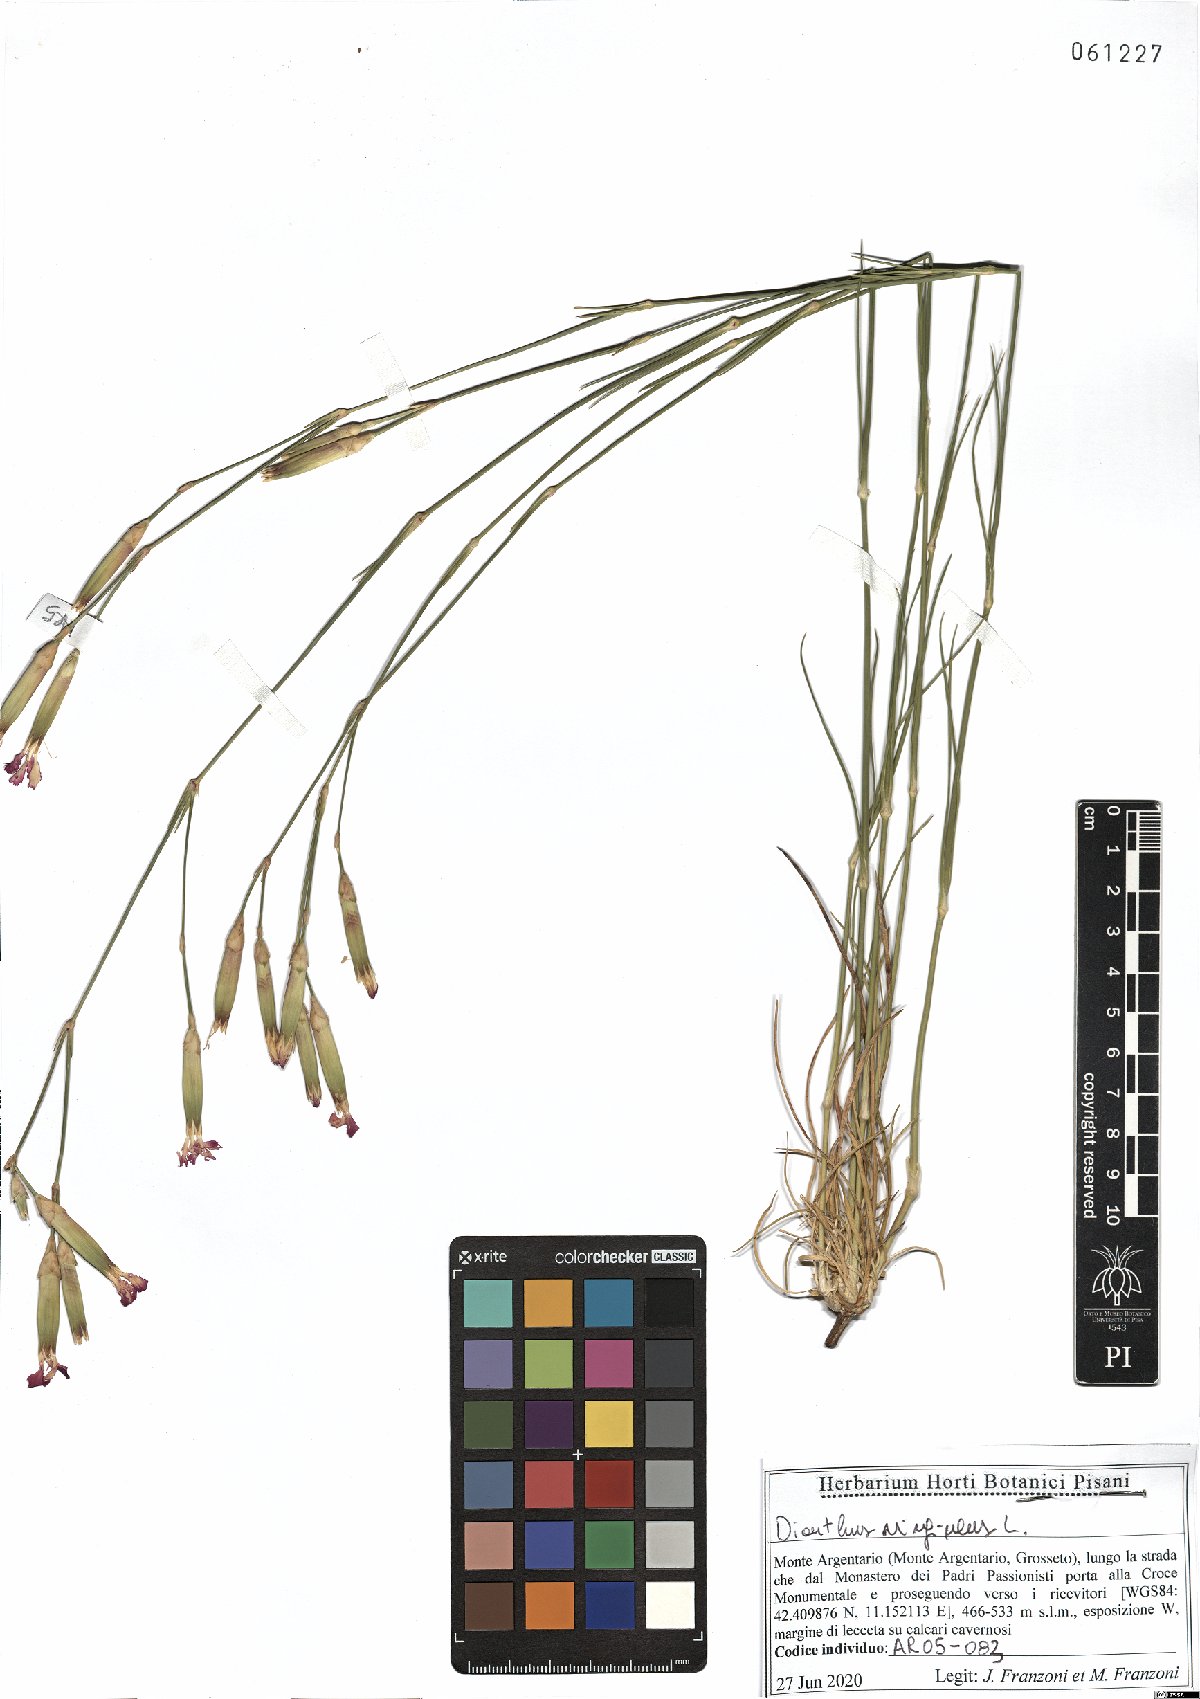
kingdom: Plantae
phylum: Tracheophyta
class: Magnoliopsida
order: Caryophyllales
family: Caryophyllaceae
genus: Dianthus
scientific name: Dianthus virgineus
